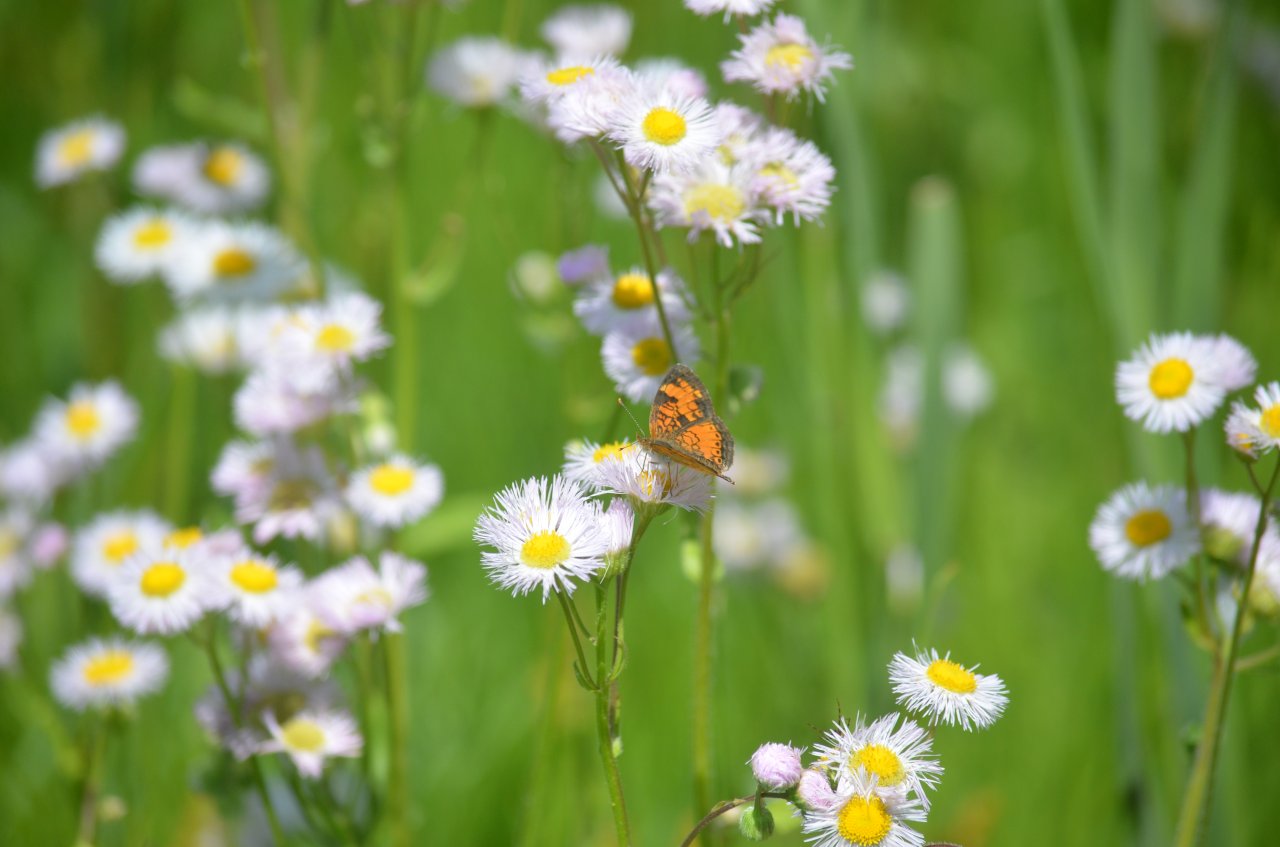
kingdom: Animalia
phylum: Arthropoda
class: Insecta
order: Lepidoptera
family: Nymphalidae
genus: Phyciodes
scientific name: Phyciodes tharos
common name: Northern Crescent
